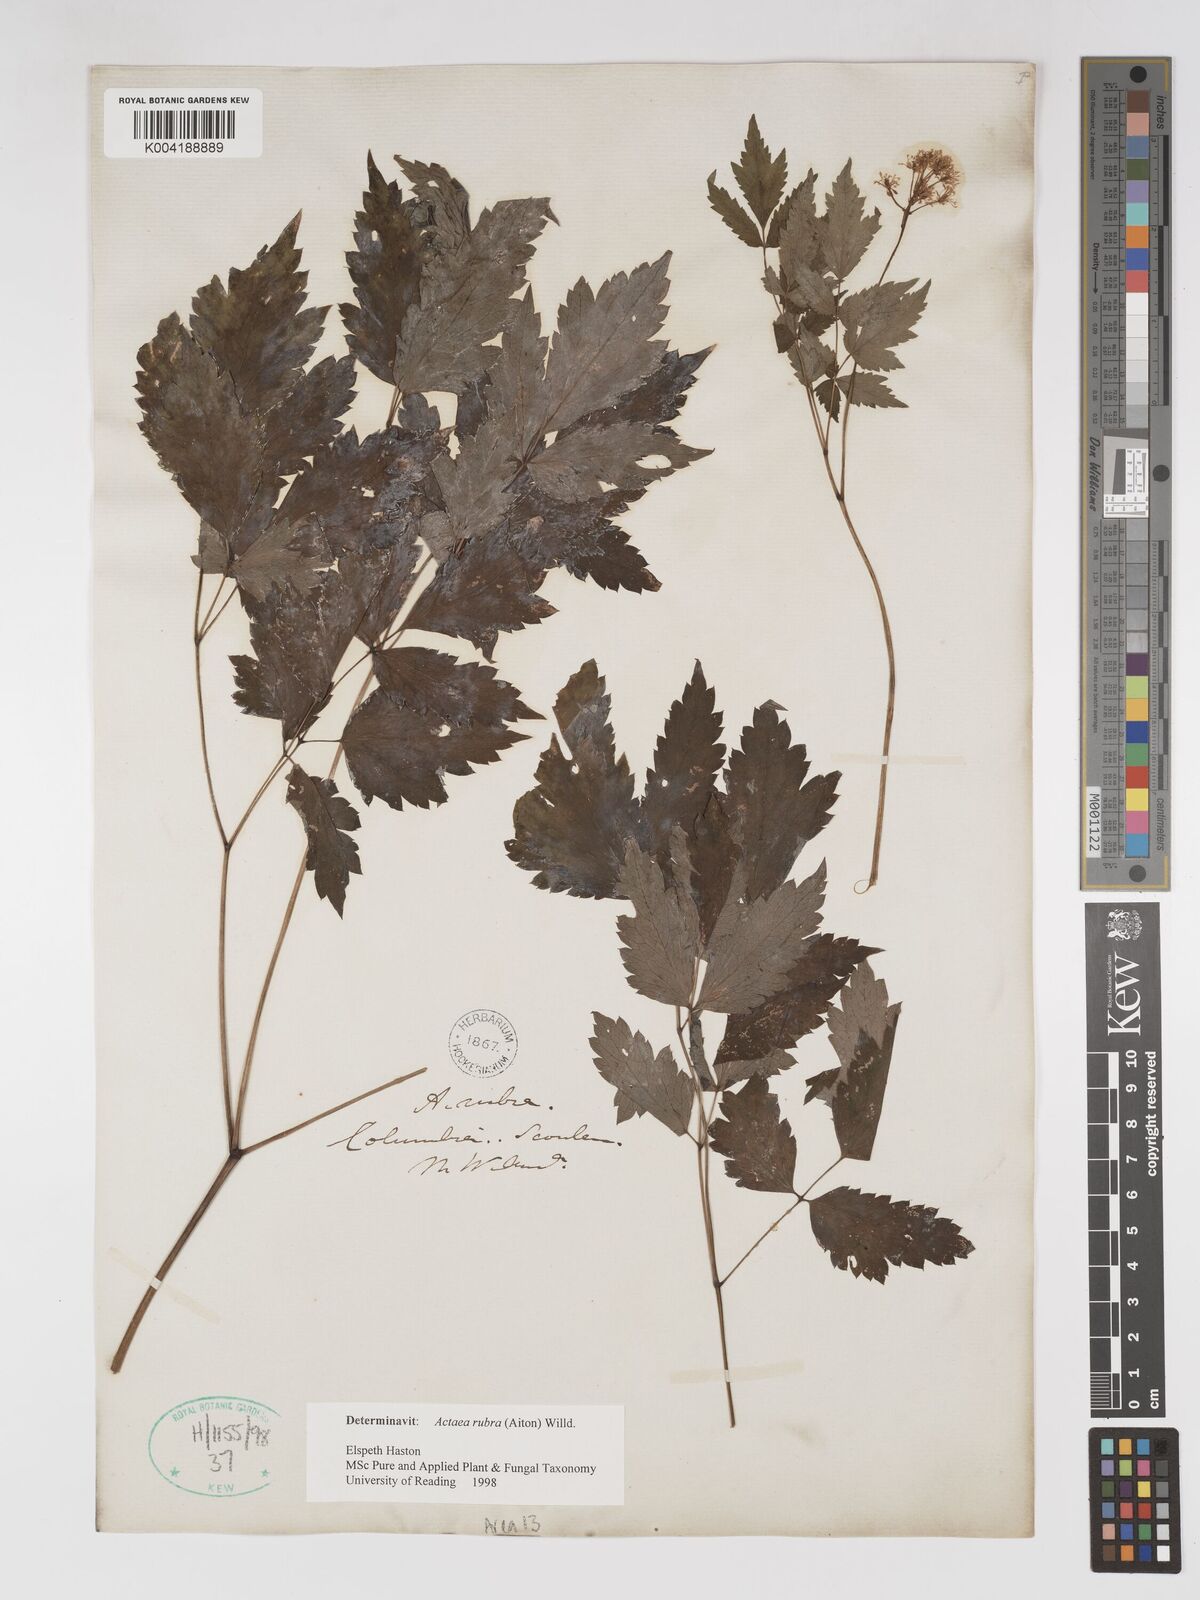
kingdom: Plantae
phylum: Tracheophyta
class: Magnoliopsida
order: Ranunculales
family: Ranunculaceae
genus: Actaea
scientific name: Actaea spicata
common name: Baneberry
